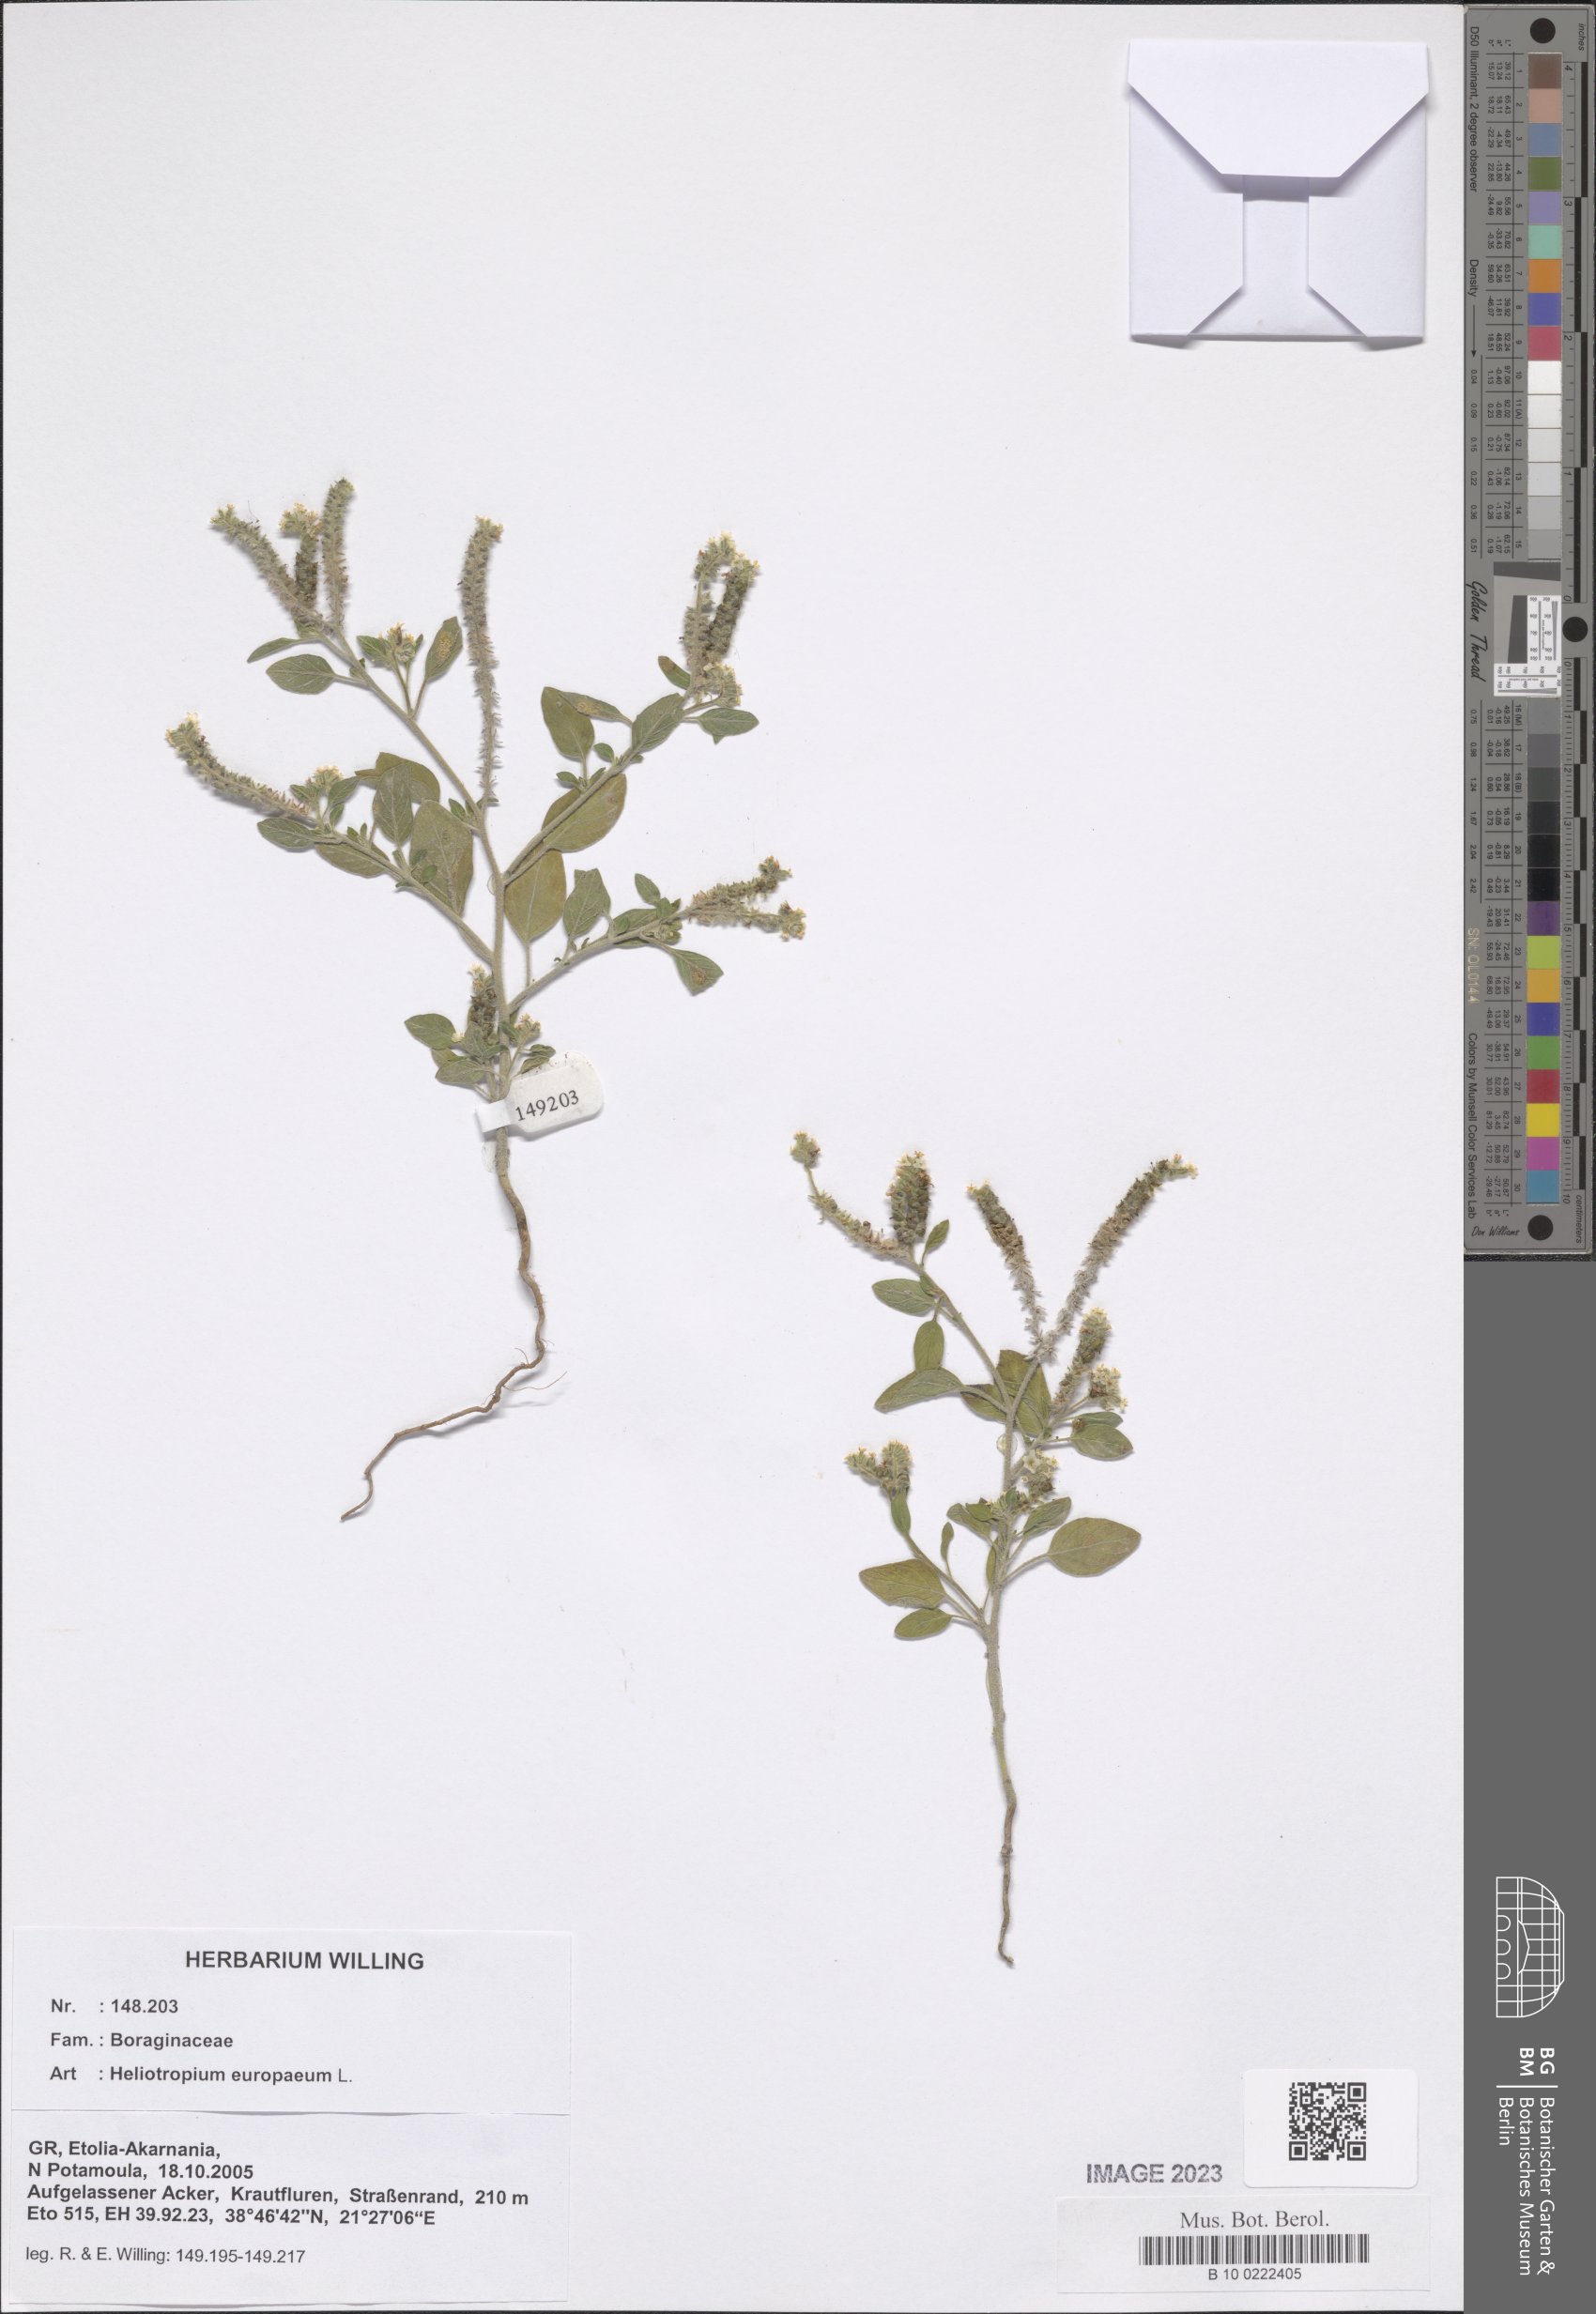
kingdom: Plantae
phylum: Tracheophyta
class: Magnoliopsida
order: Boraginales
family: Heliotropiaceae
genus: Heliotropium
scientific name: Heliotropium europaeum
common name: European heliotrope
